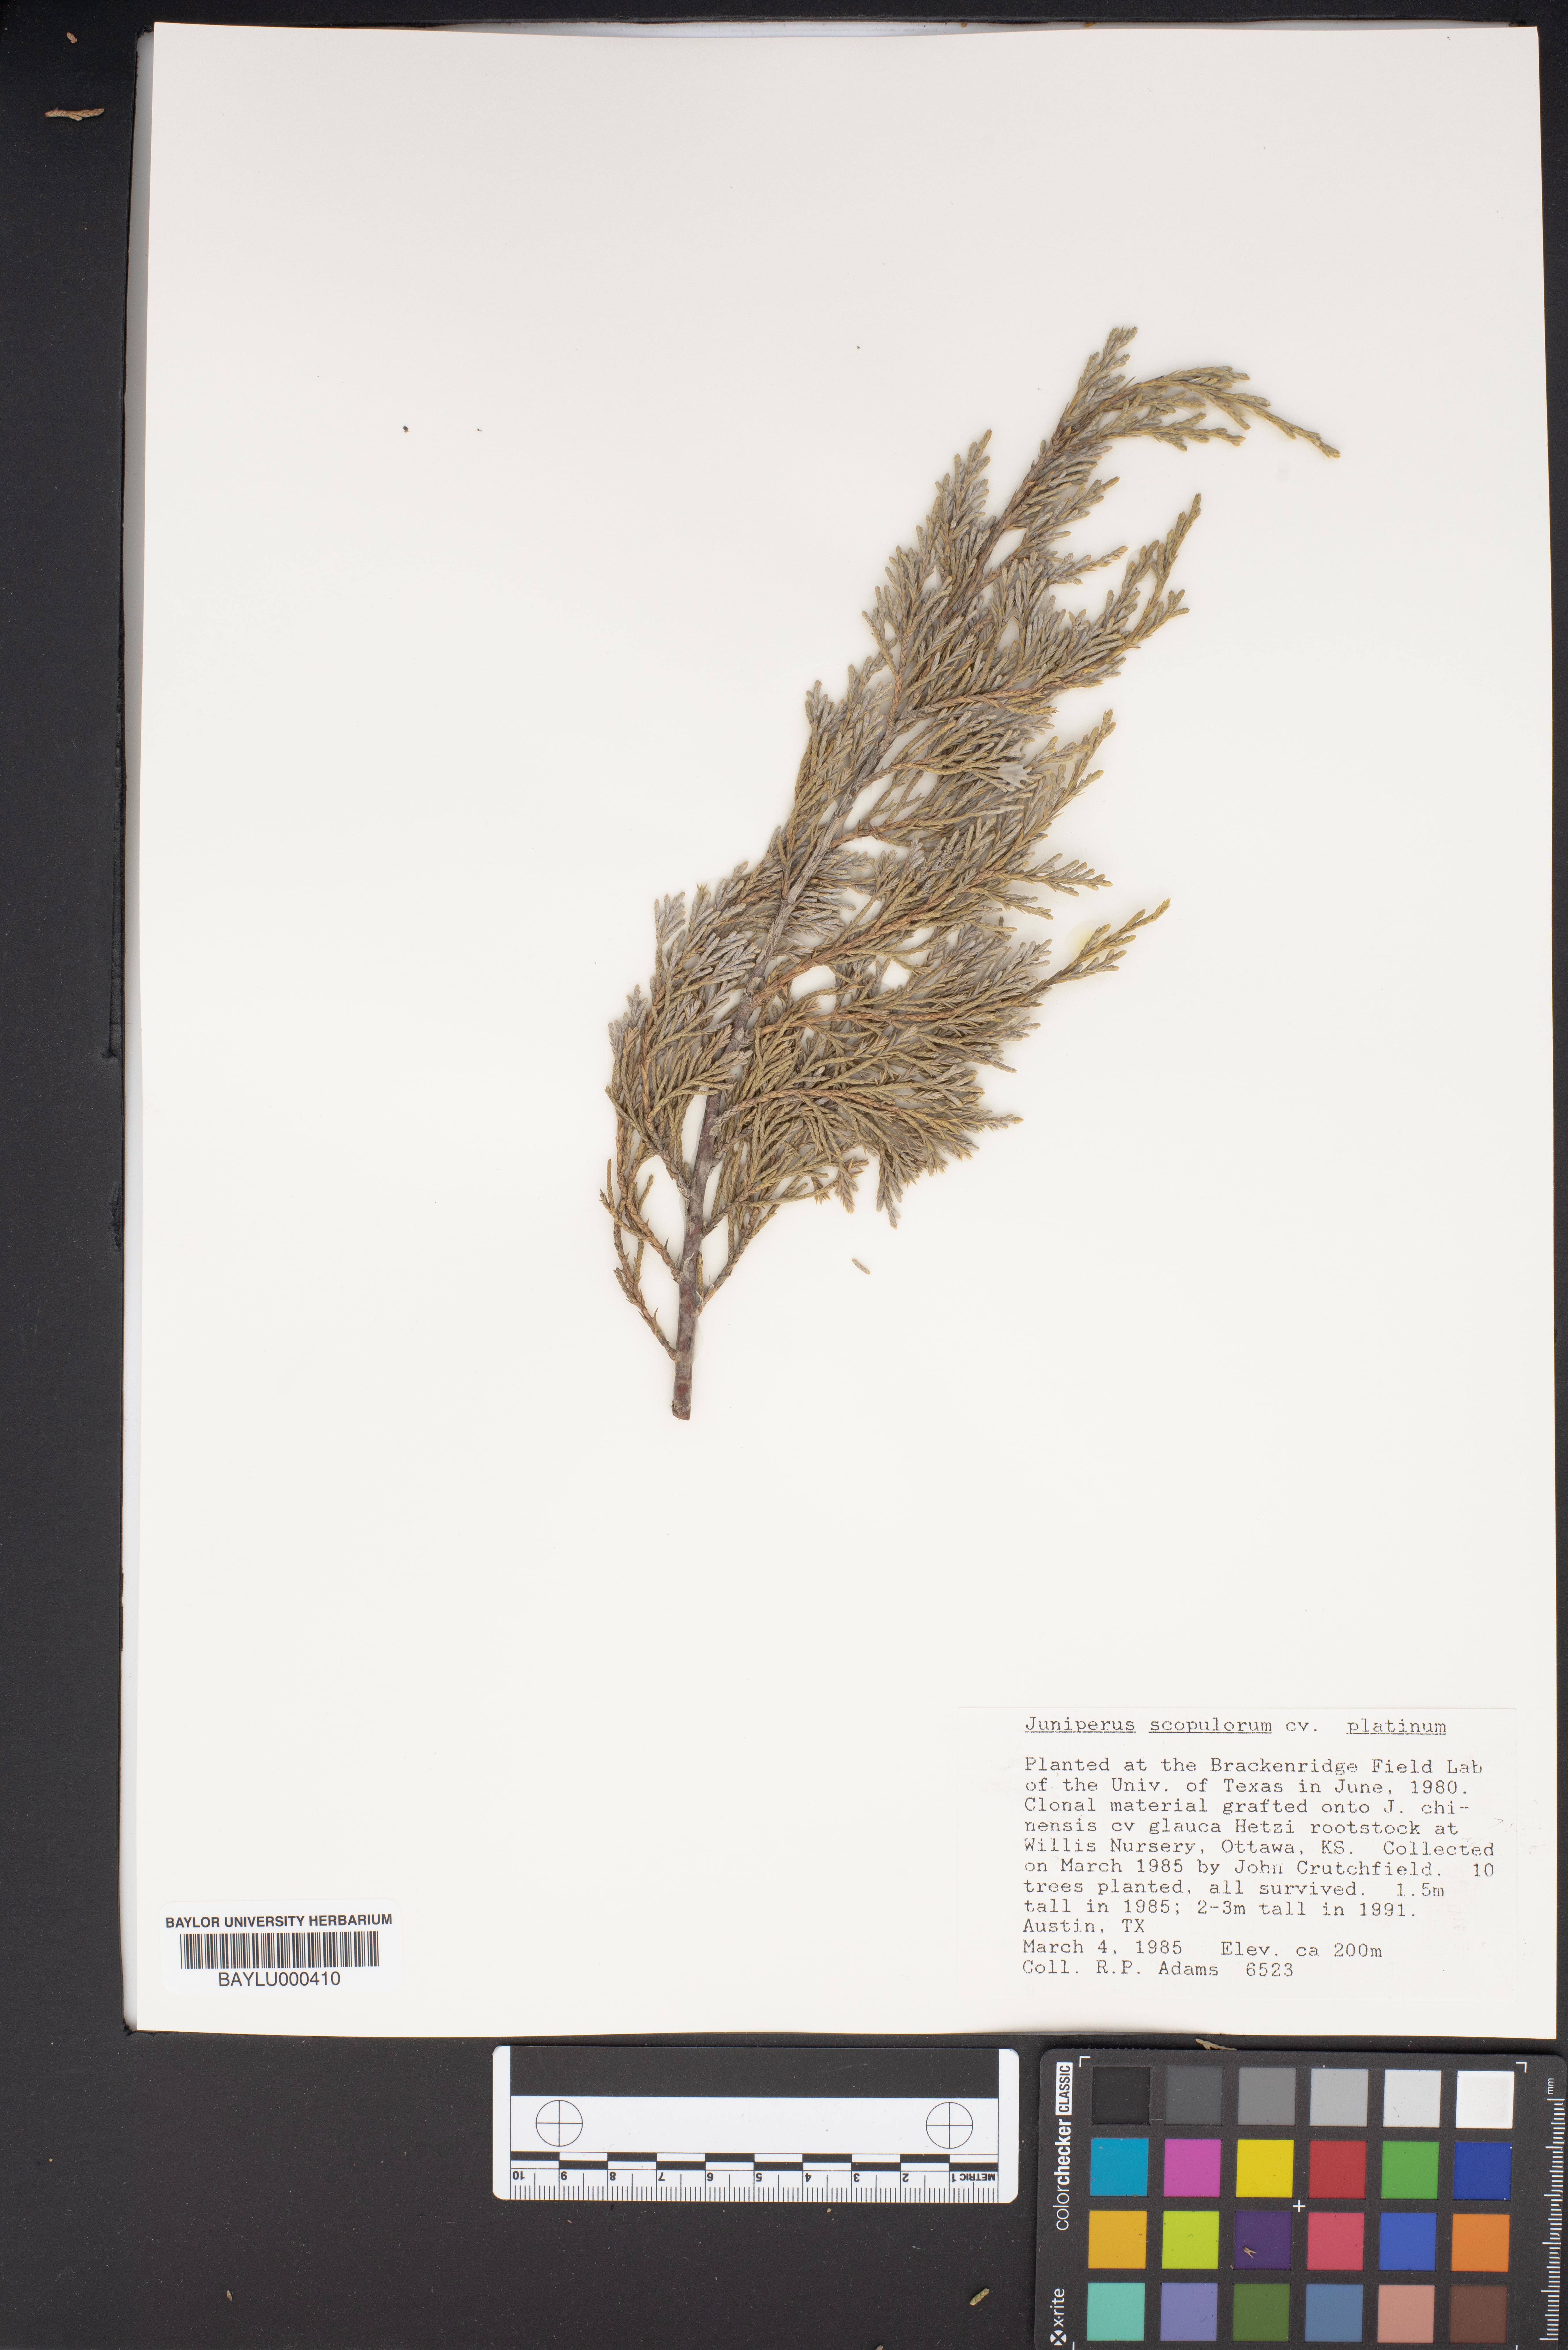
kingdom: Plantae
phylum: Tracheophyta
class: Pinopsida
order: Pinales
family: Cupressaceae
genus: Juniperus
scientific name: Juniperus scopulorum
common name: Rocky mountain juniper
